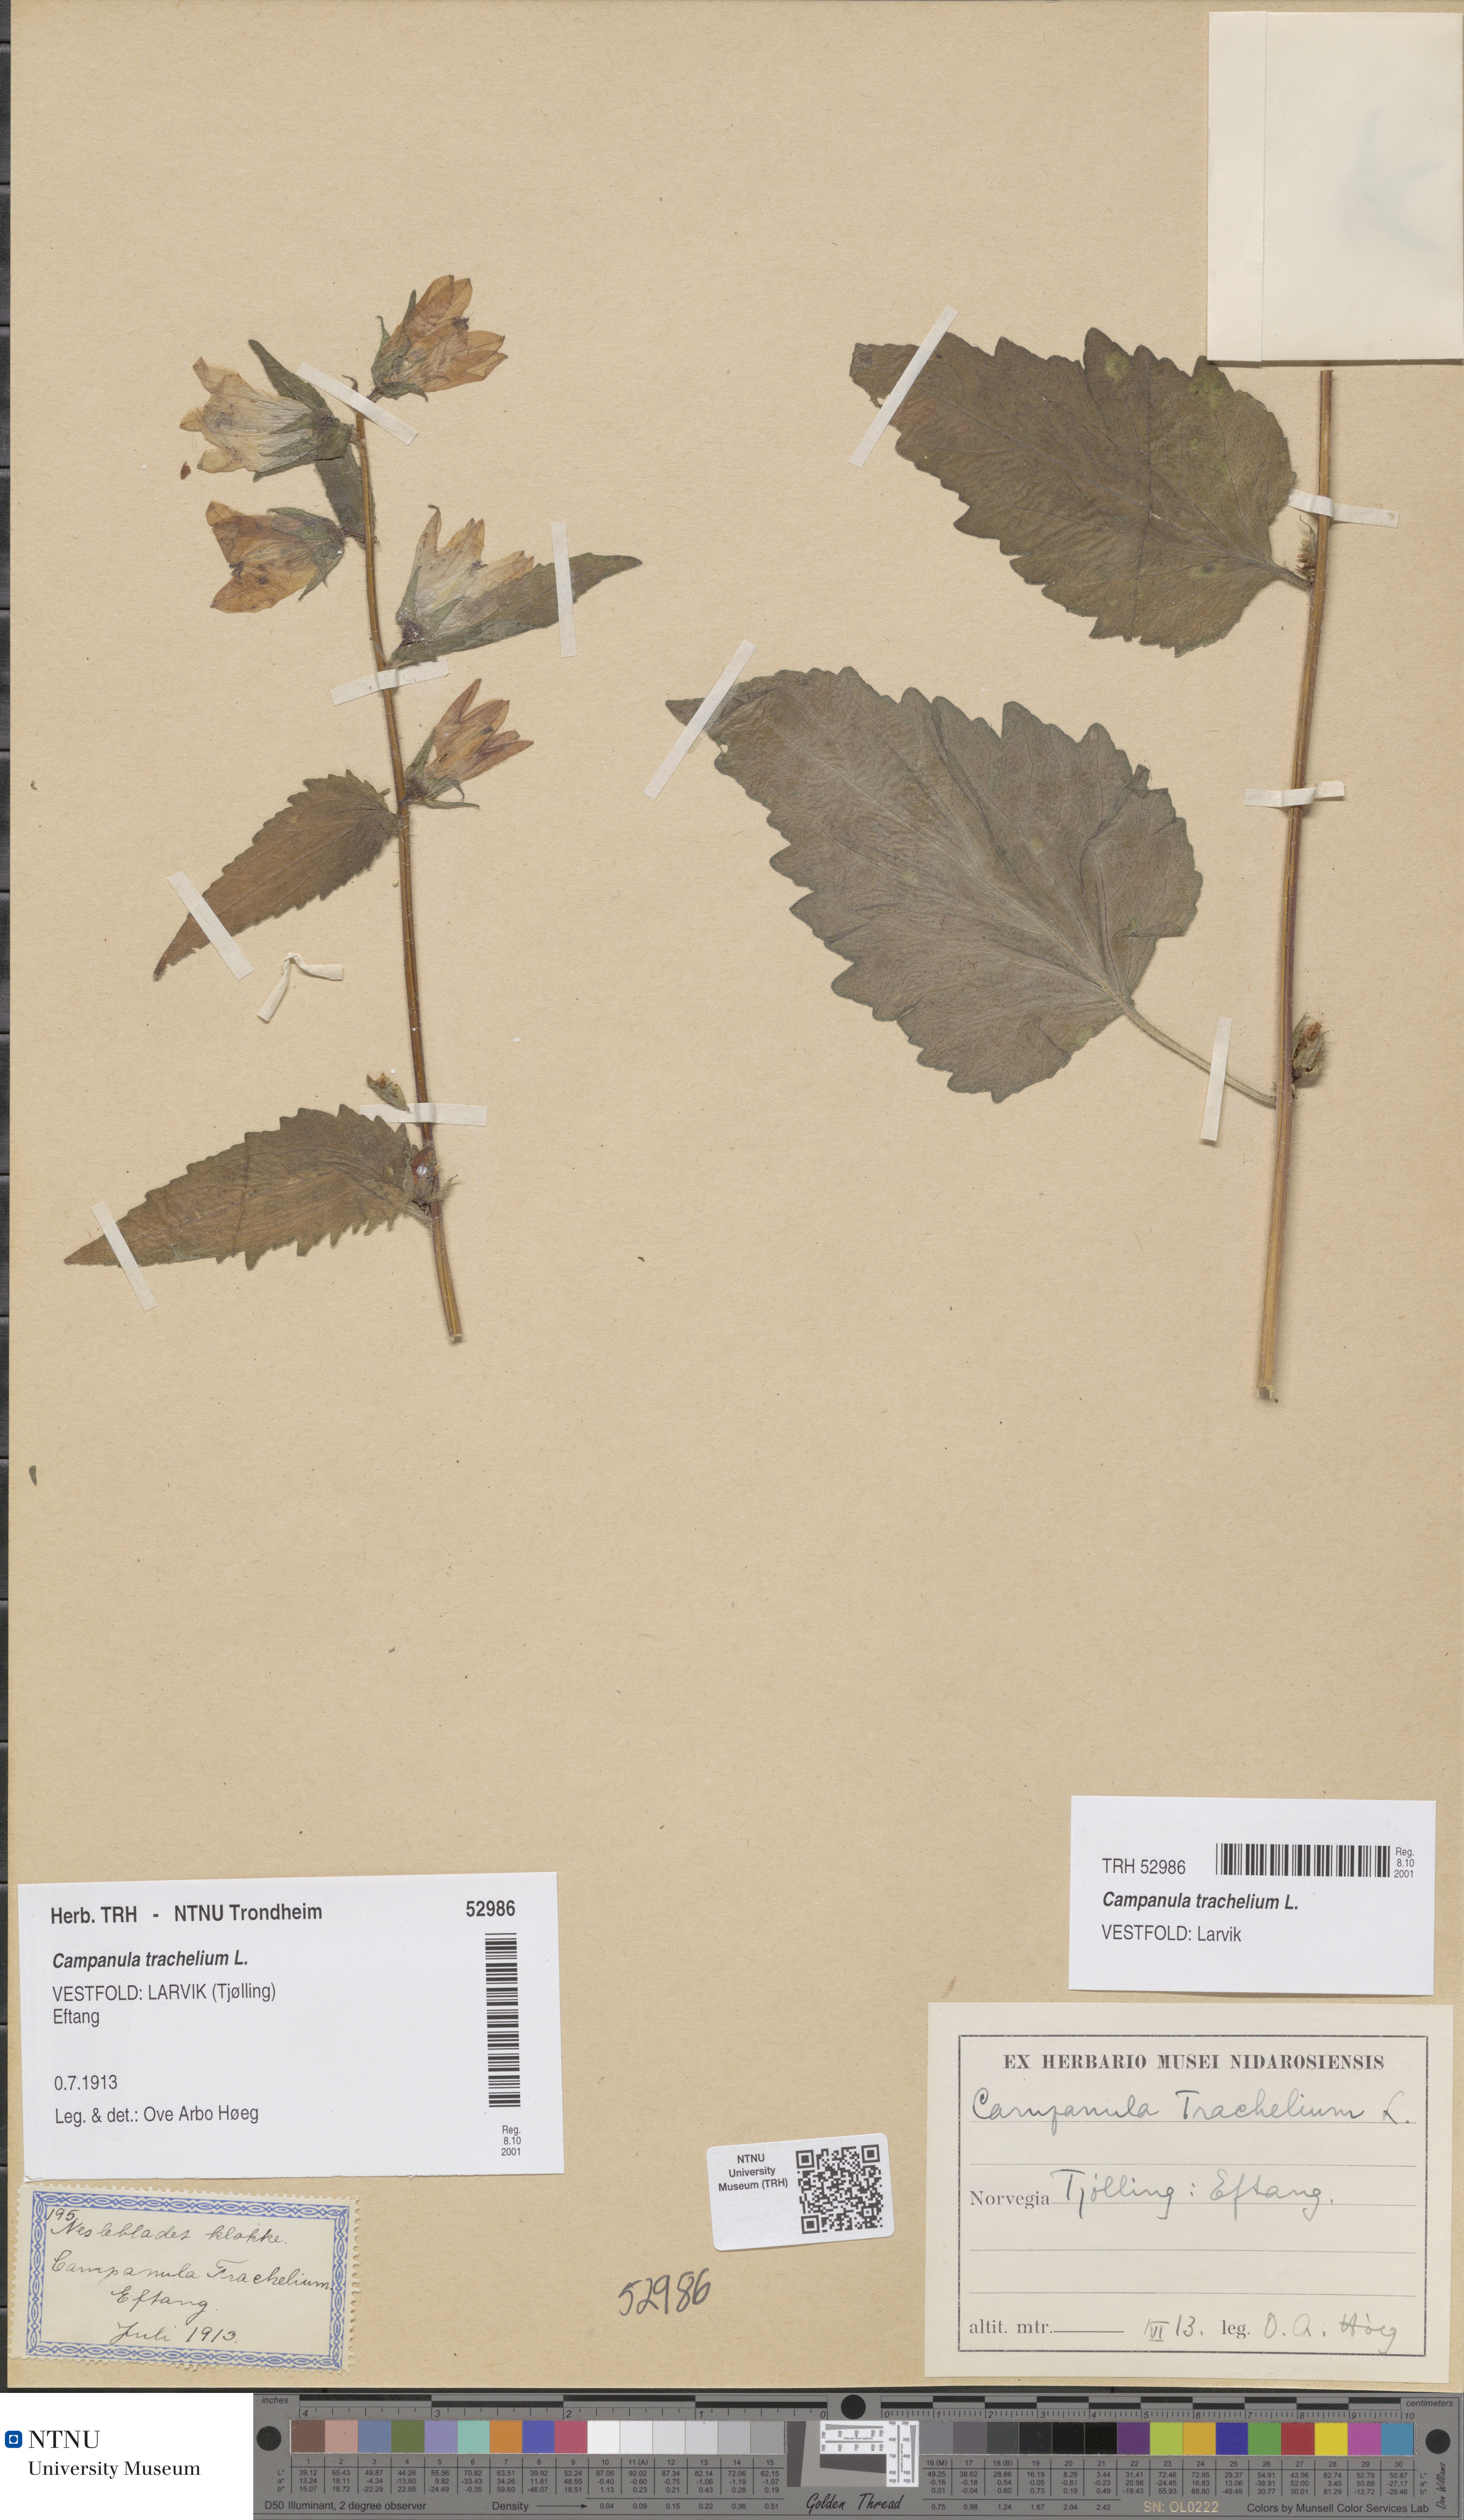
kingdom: Plantae
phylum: Tracheophyta
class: Magnoliopsida
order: Asterales
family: Campanulaceae
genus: Campanula
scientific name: Campanula trachelium
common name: Nettle-leaved bellflower
